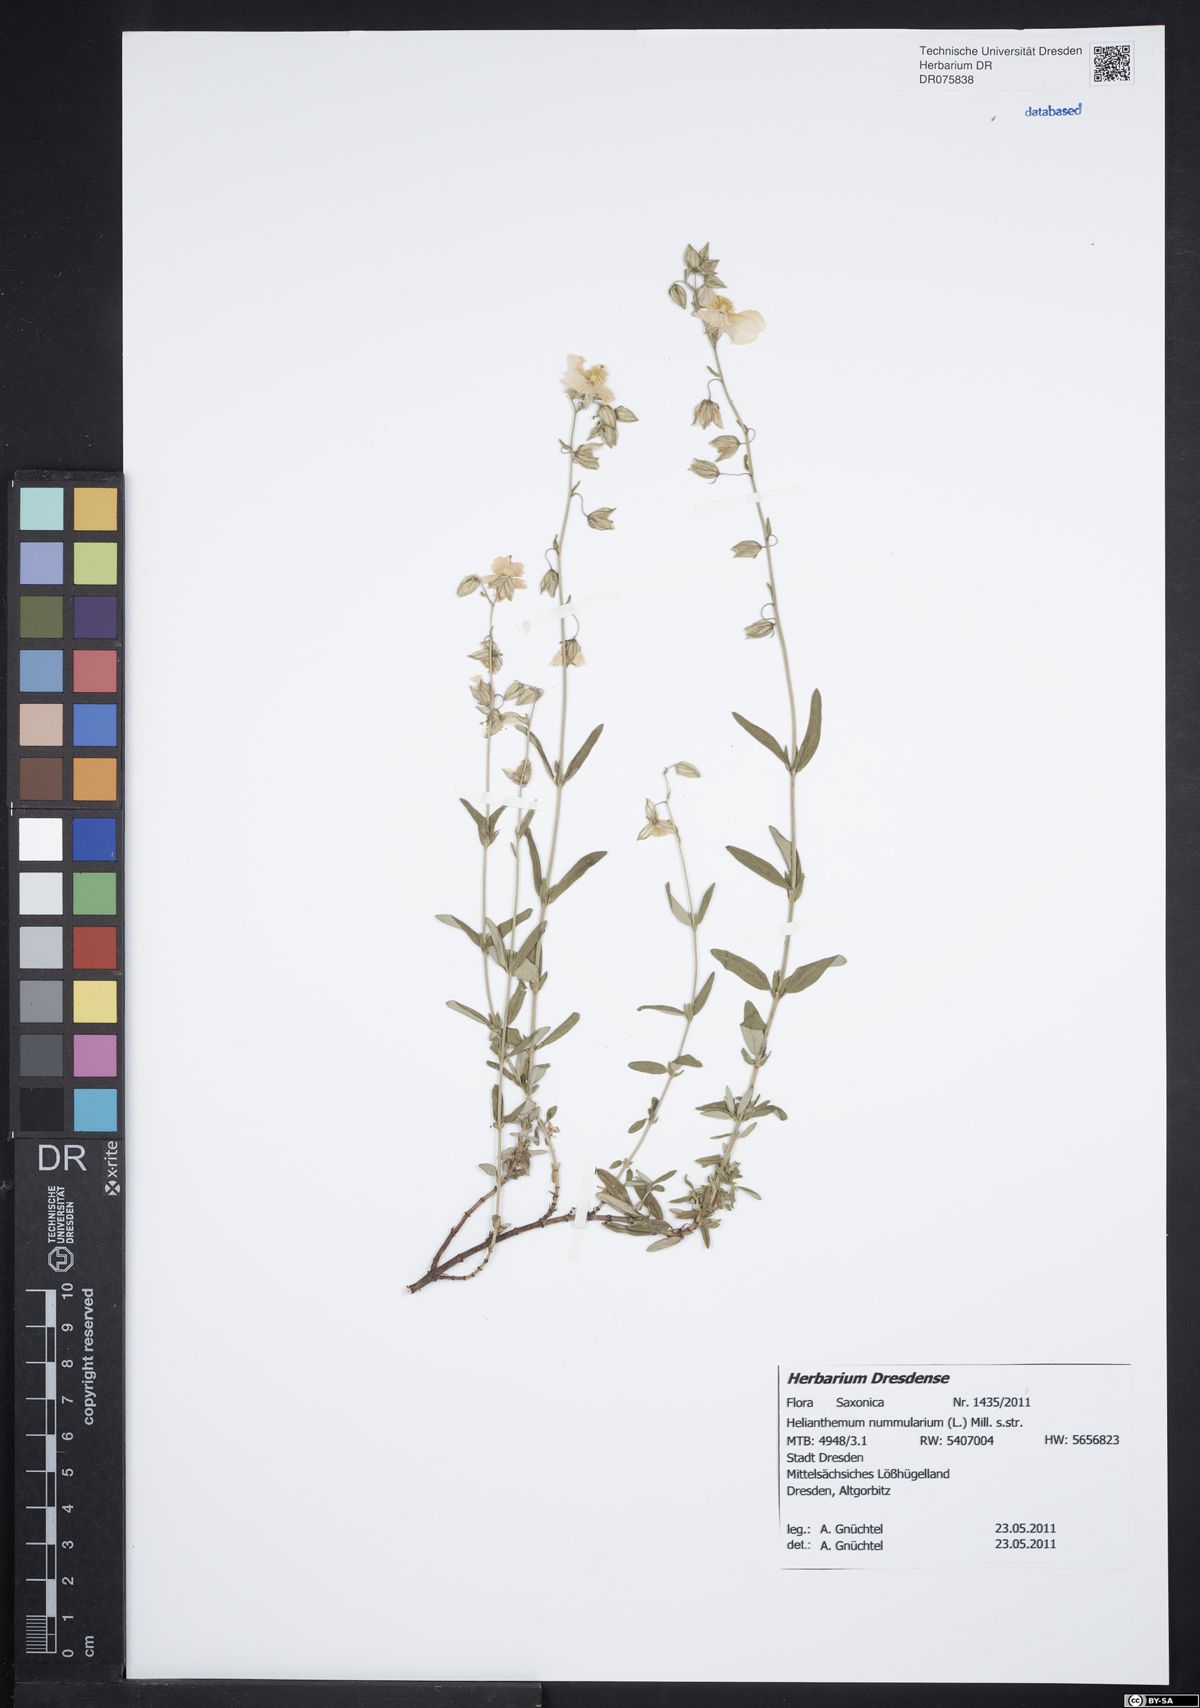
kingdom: Plantae
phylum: Tracheophyta
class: Magnoliopsida
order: Malvales
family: Cistaceae
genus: Helianthemum
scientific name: Helianthemum nummularium
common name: Common rock-rose
